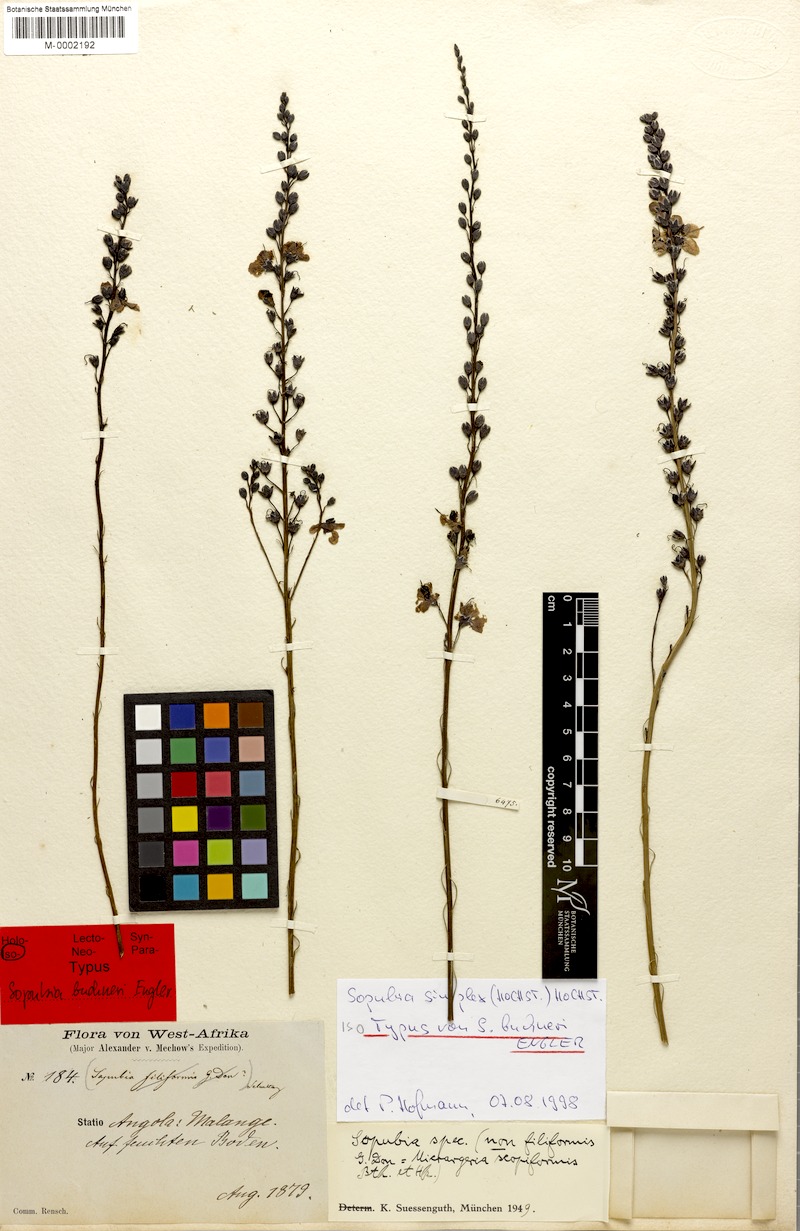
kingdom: Plantae
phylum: Tracheophyta
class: Magnoliopsida
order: Lamiales
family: Orobanchaceae
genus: Sopubia
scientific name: Sopubia simplex
